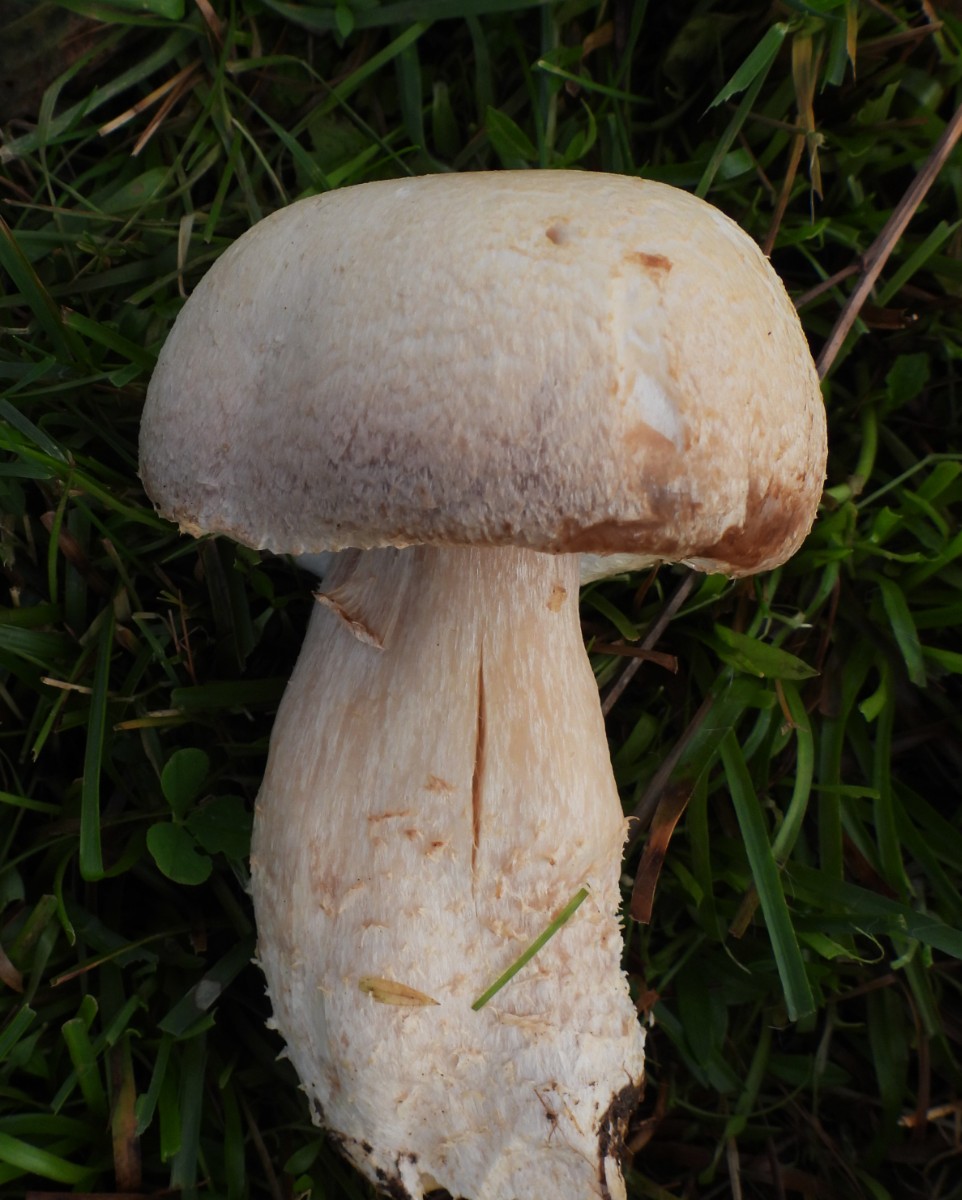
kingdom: Fungi
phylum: Basidiomycota
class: Agaricomycetes
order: Agaricales
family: Agaricaceae
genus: Agaricus
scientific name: Agaricus
